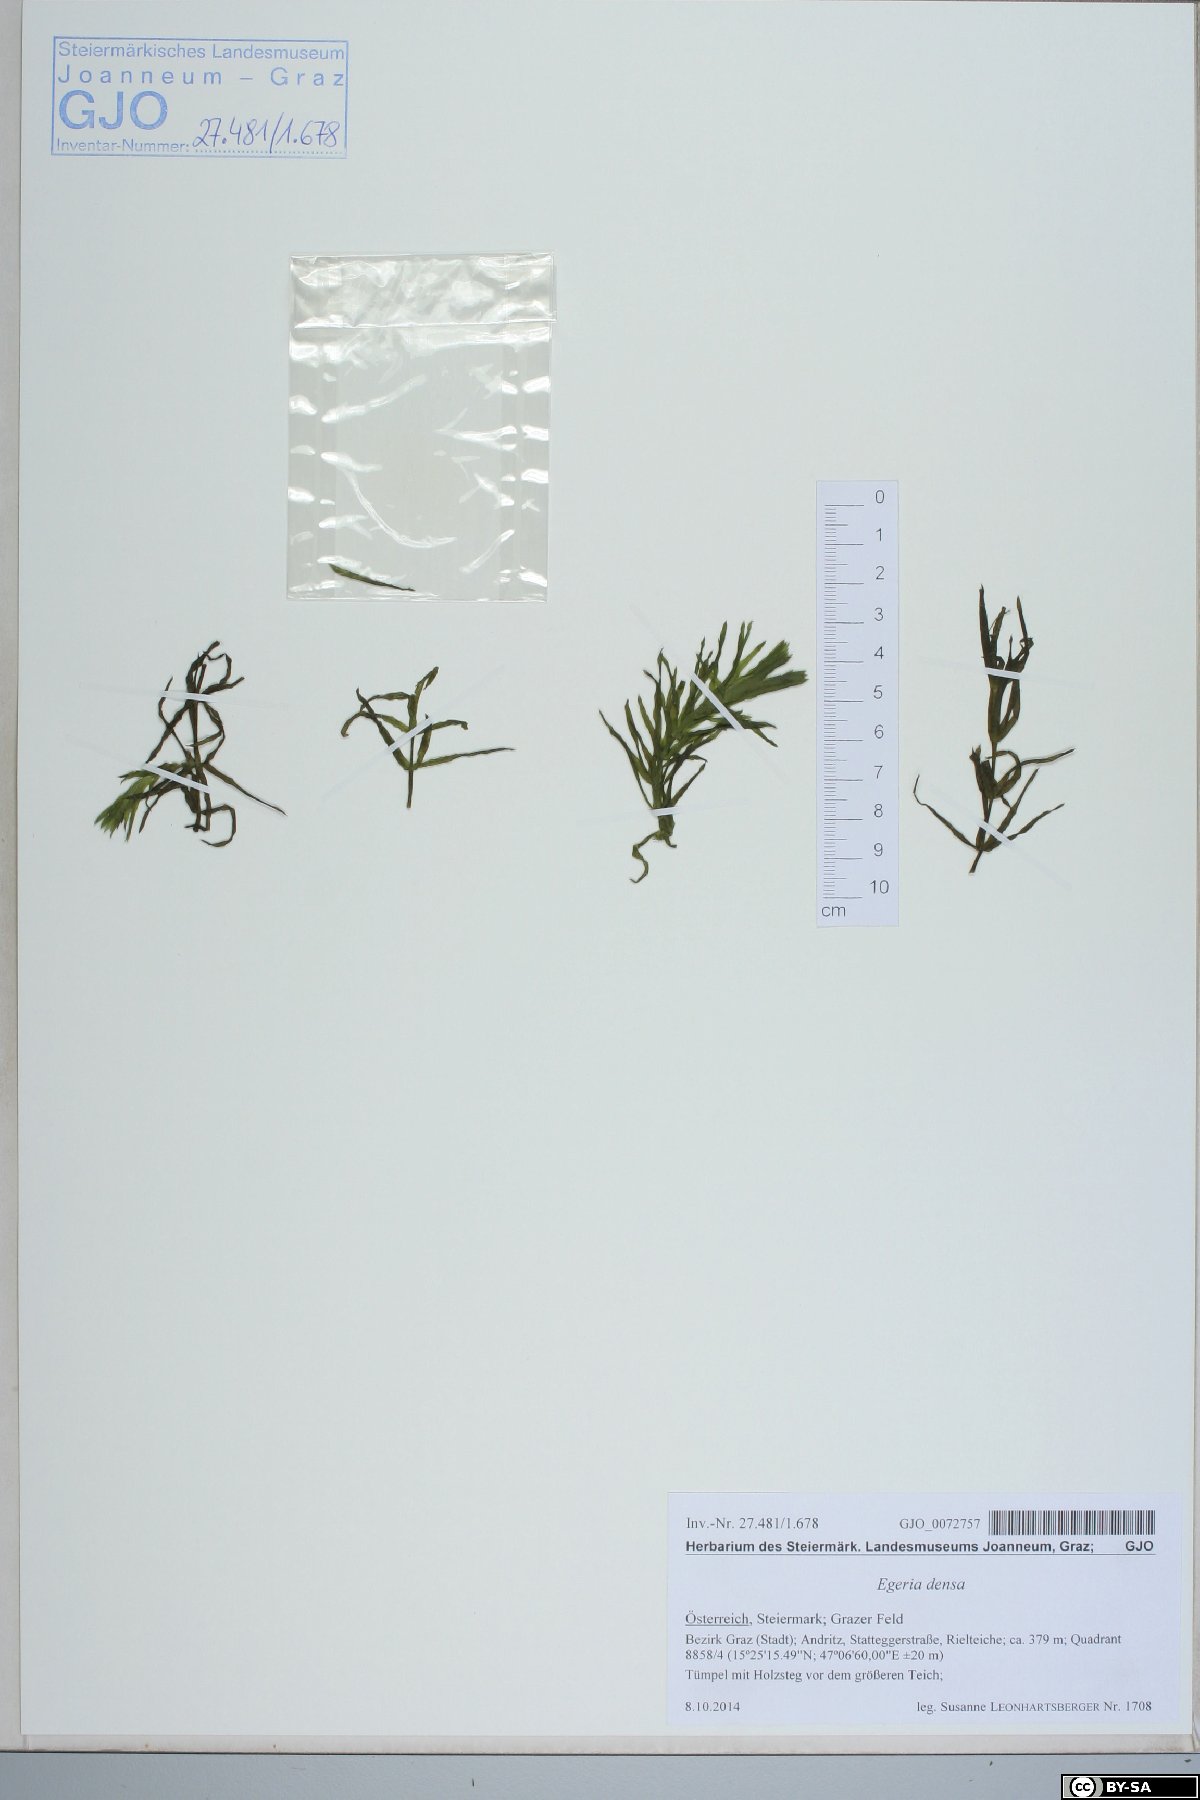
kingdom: Plantae
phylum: Tracheophyta
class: Liliopsida
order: Alismatales
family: Hydrocharitaceae
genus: Elodea
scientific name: Elodea densa
